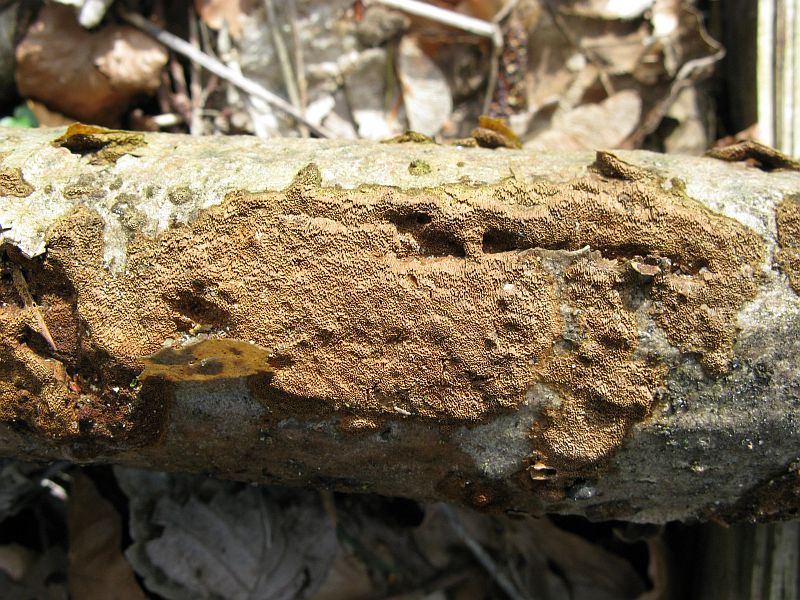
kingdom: Fungi
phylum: Basidiomycota
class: Agaricomycetes
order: Hymenochaetales
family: Hymenochaetaceae
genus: Fuscoporia
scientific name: Fuscoporia ferruginosa
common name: rustbrun ildporesvamp
